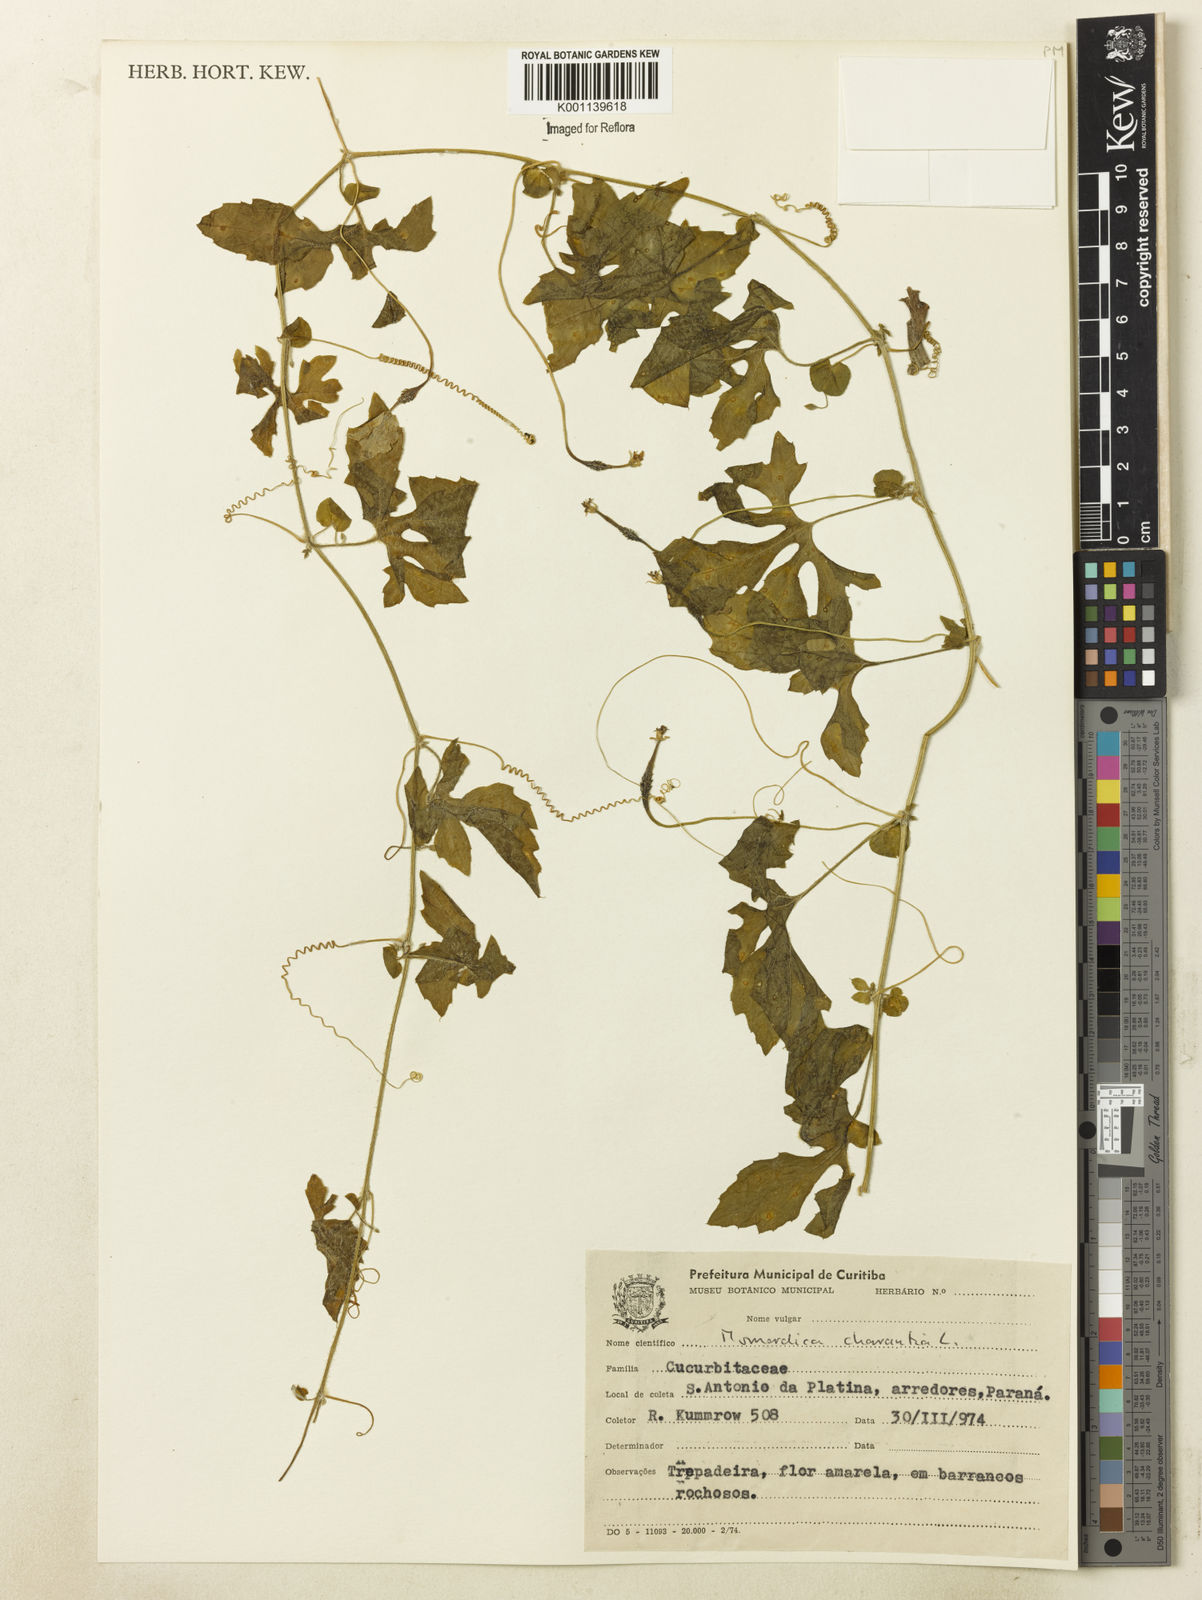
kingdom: Plantae
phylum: Tracheophyta
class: Magnoliopsida
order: Cucurbitales
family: Cucurbitaceae
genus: Momordica
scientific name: Momordica charantia
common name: Balsampear
